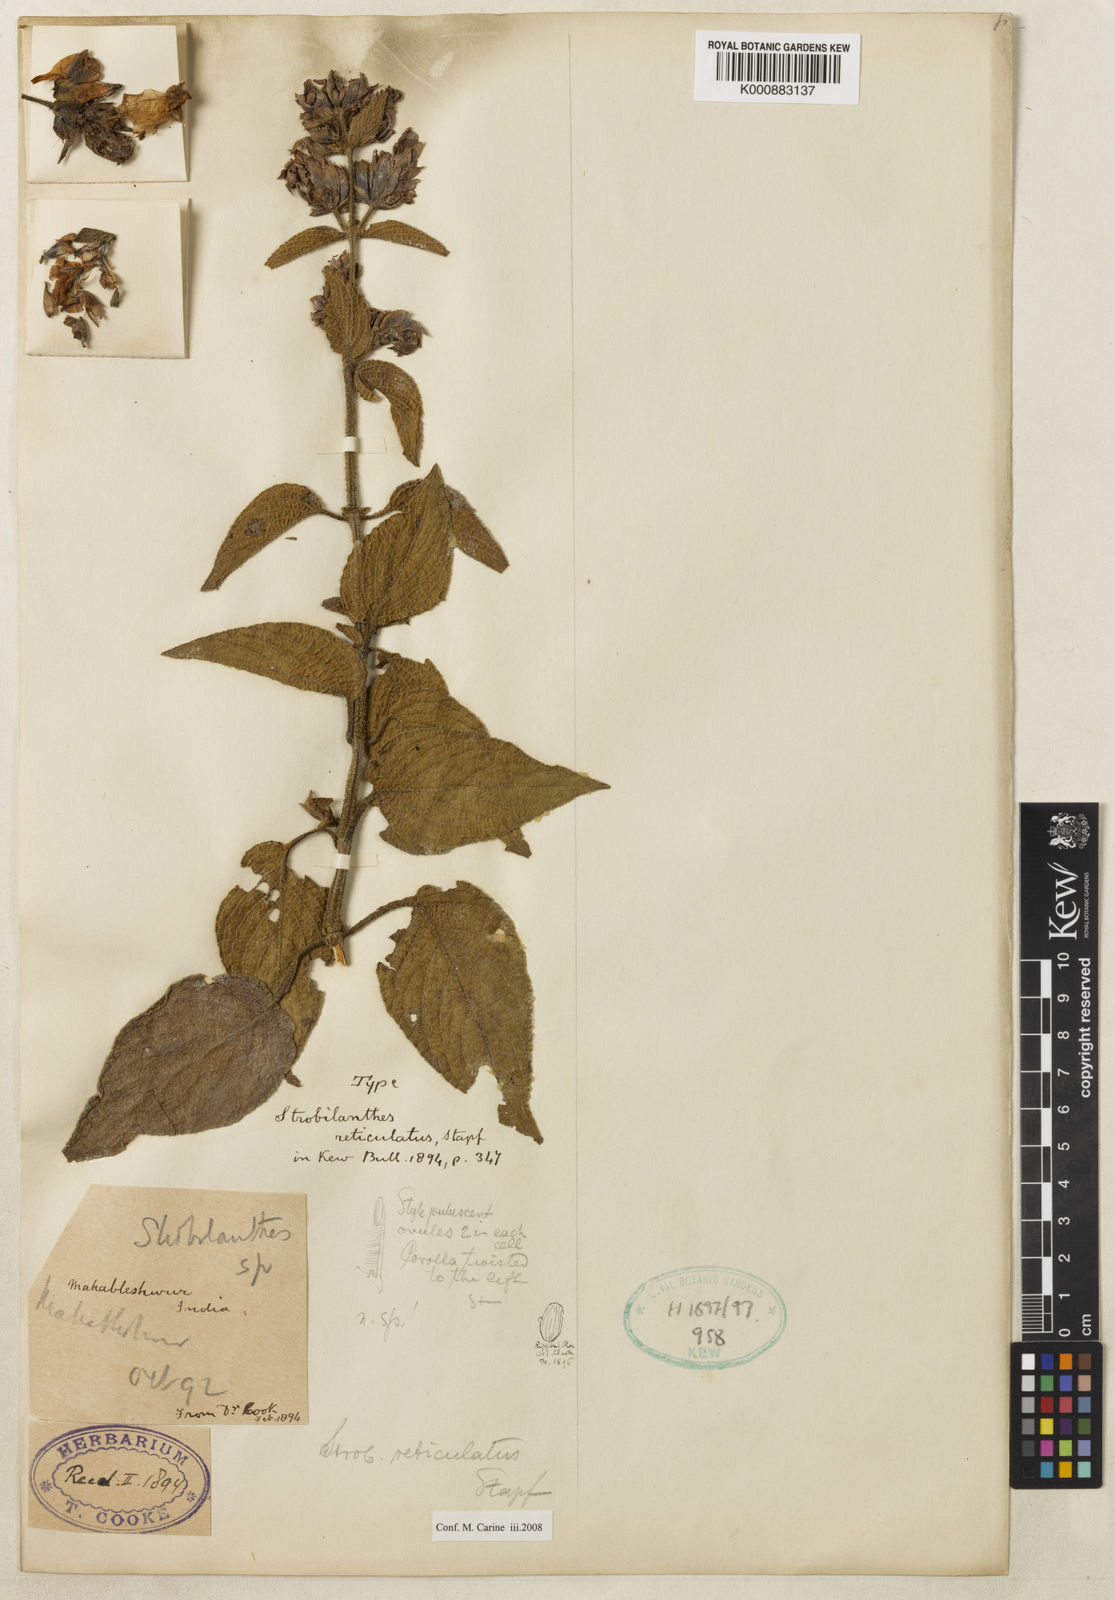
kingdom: Plantae
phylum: Tracheophyta
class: Magnoliopsida
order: Lamiales
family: Acanthaceae
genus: Strobilanthes
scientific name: Strobilanthes reticulata
